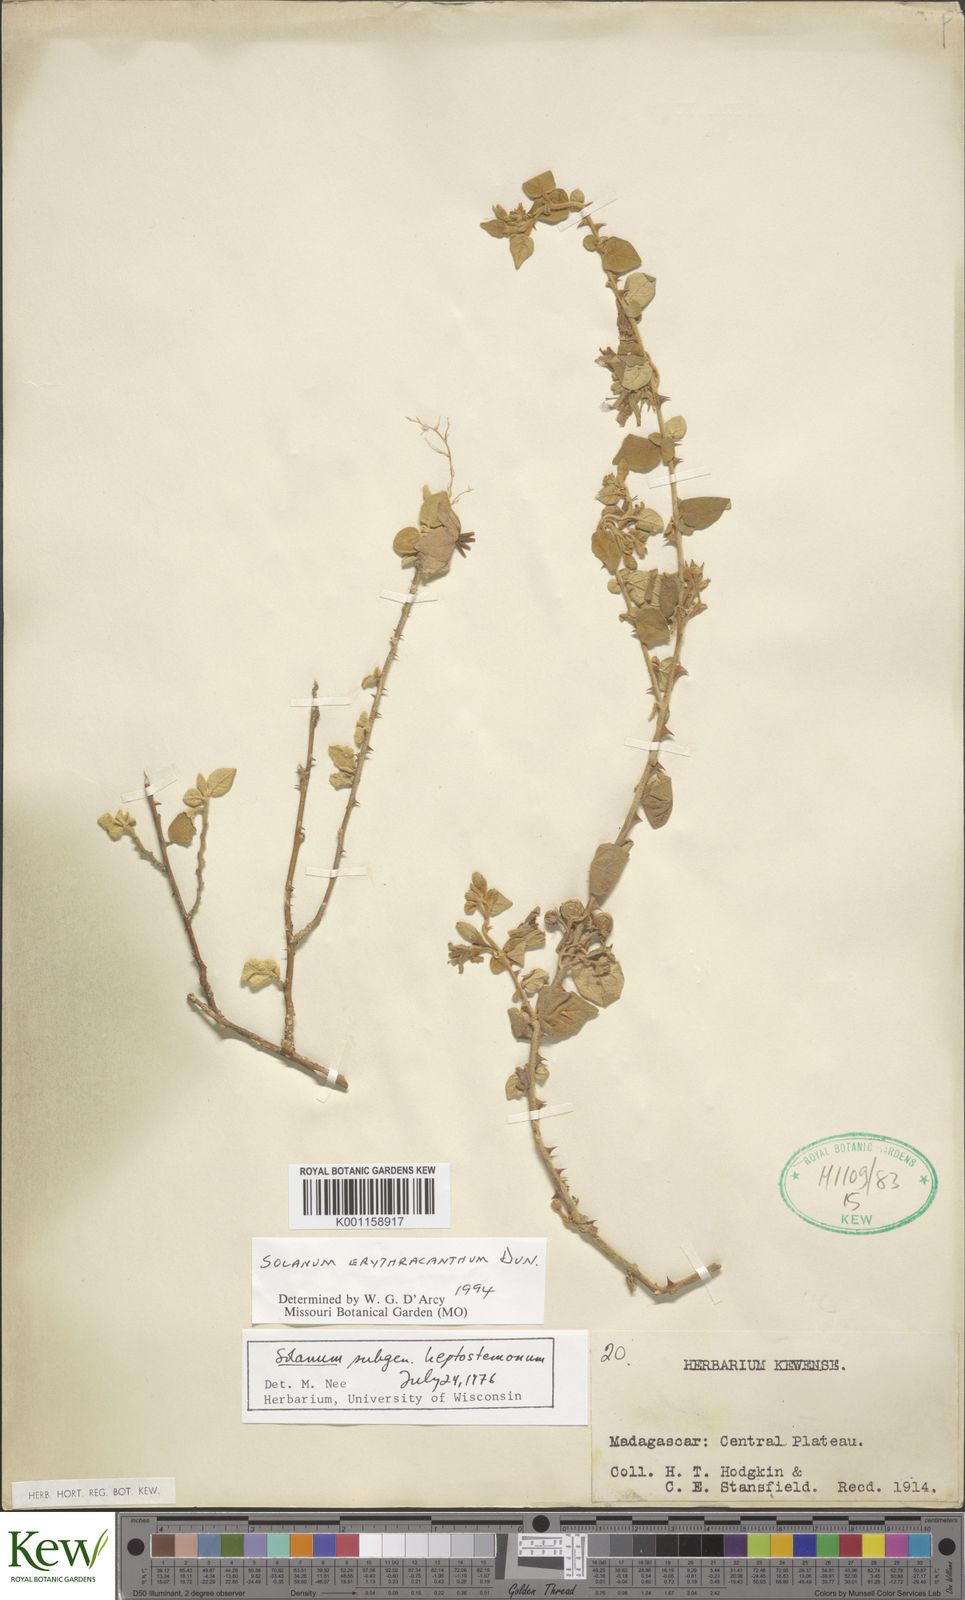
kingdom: Plantae
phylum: Tracheophyta
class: Magnoliopsida
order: Solanales
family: Solanaceae
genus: Solanum
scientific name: Solanum erythracanthum
